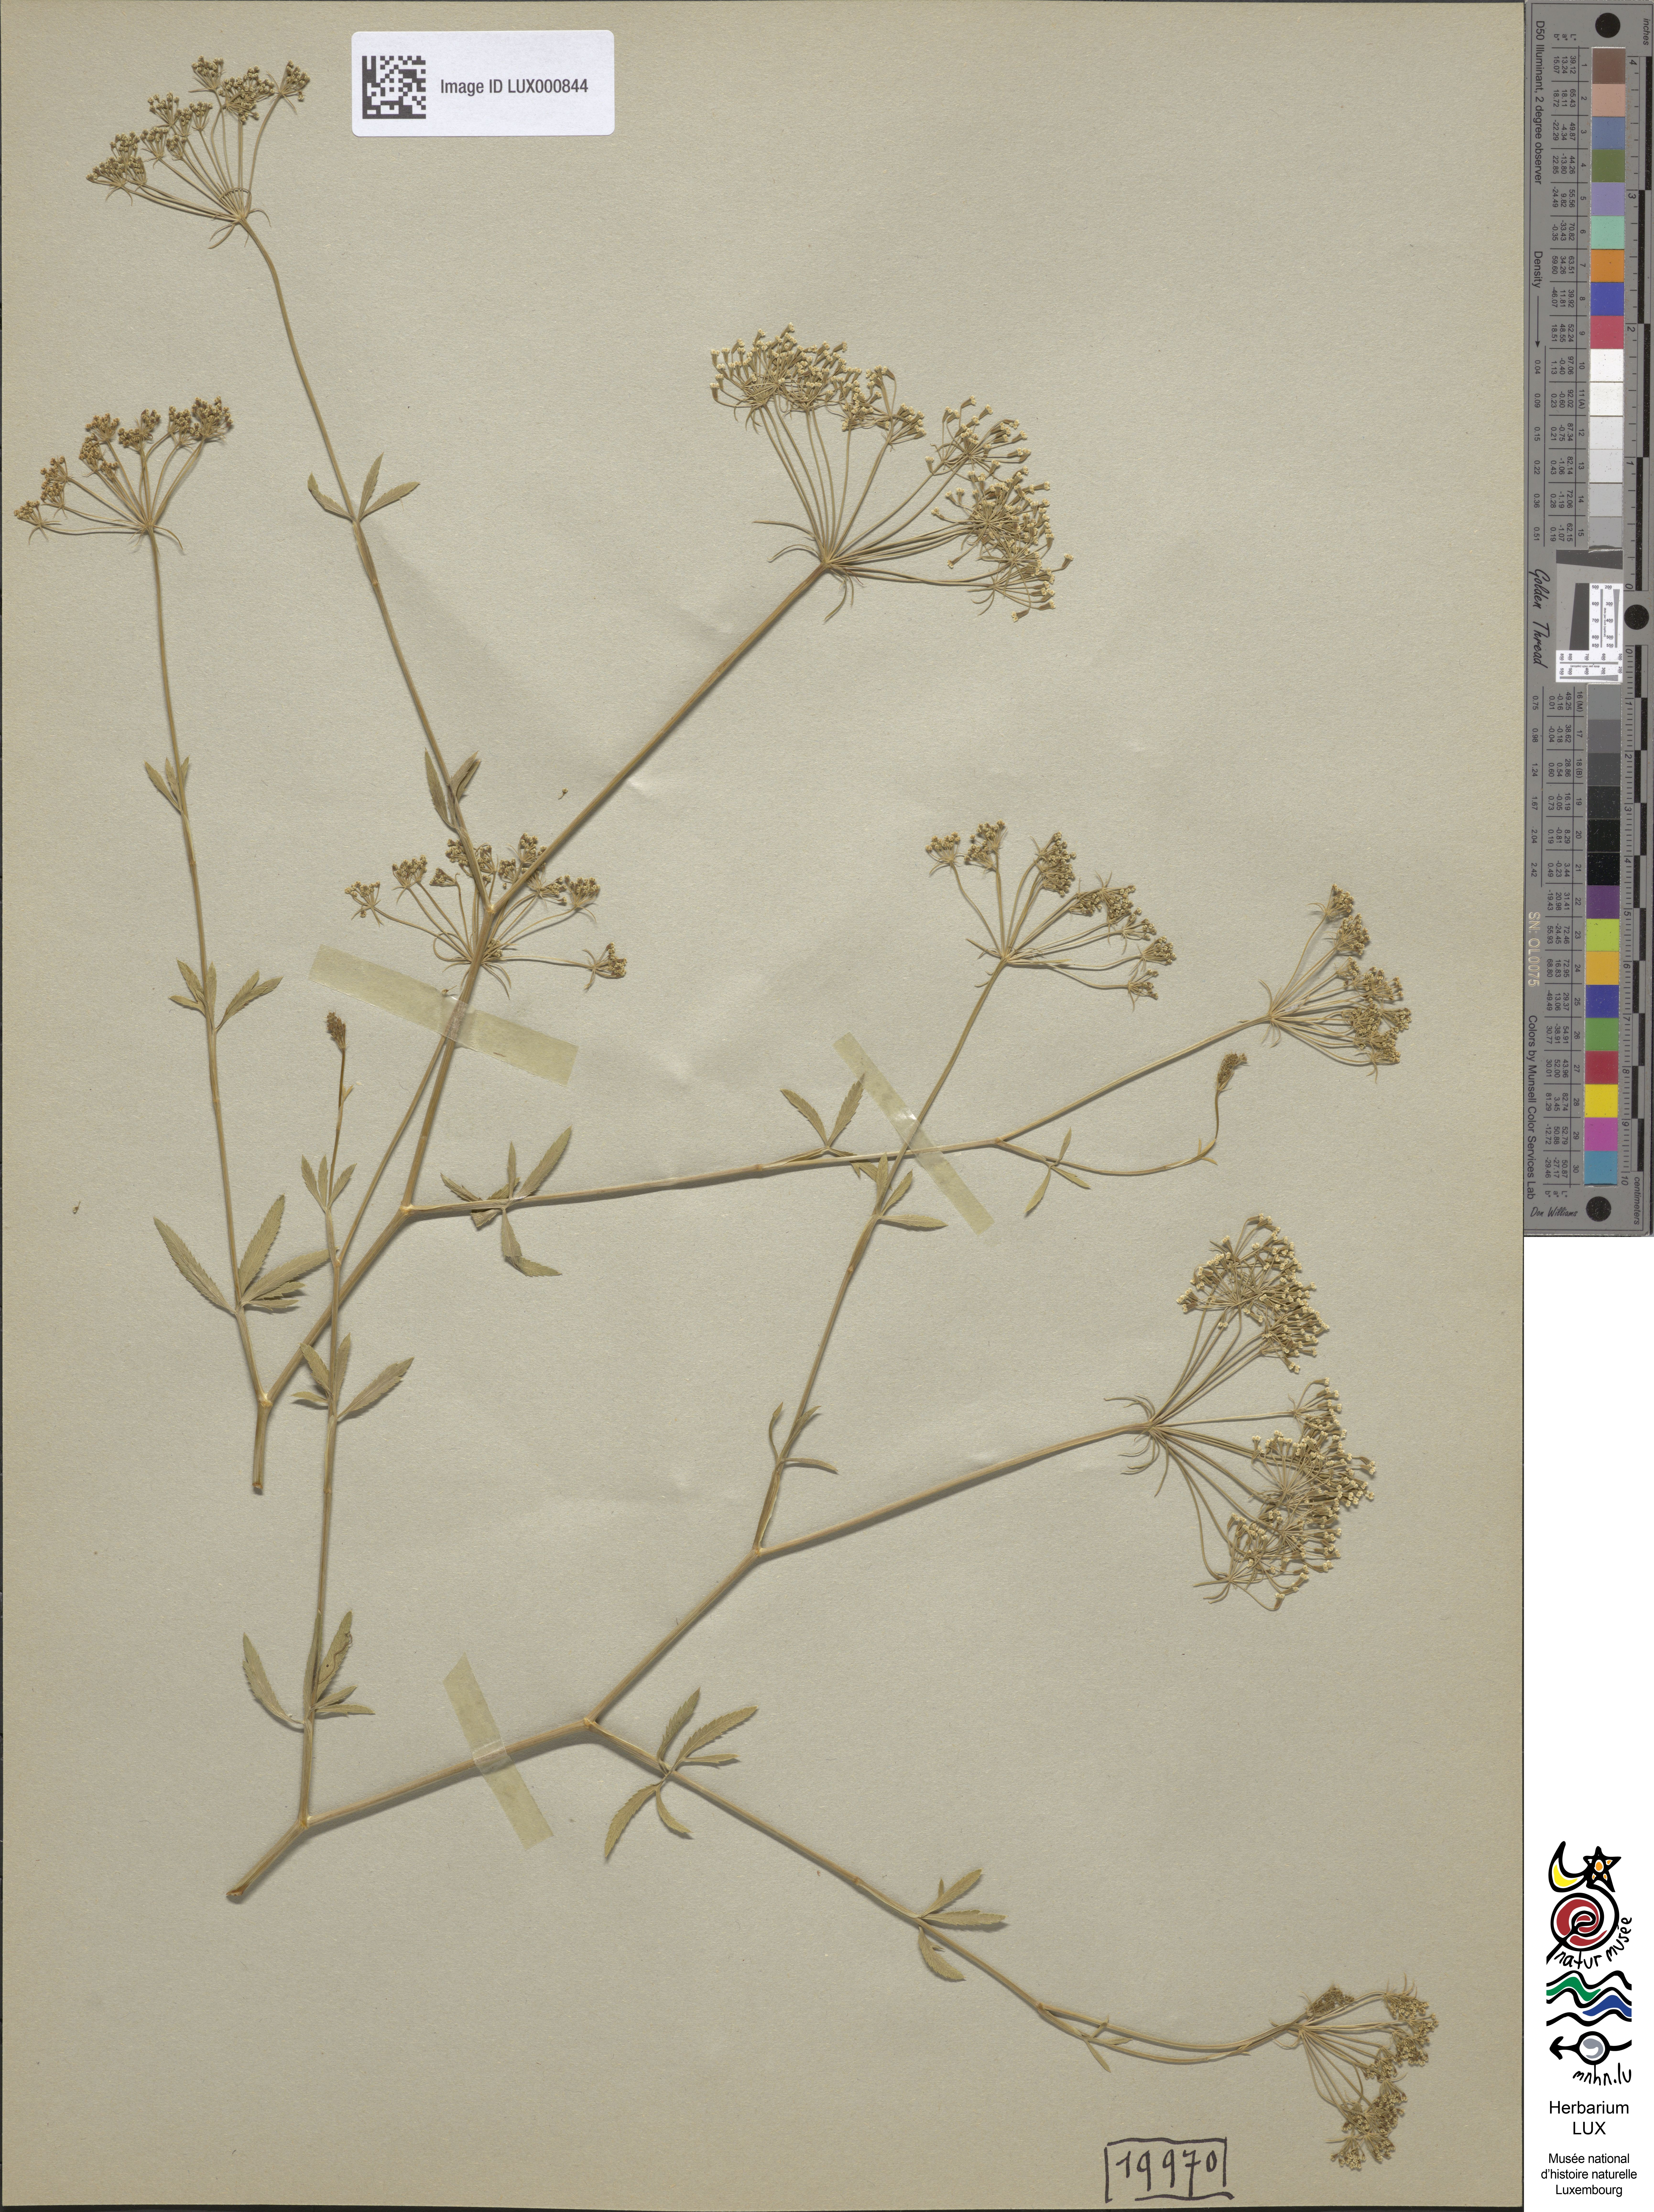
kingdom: Plantae
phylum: Tracheophyta
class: Magnoliopsida
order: Apiales
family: Apiaceae
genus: Falcaria
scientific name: Falcaria vulgaris
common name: Longleaf
